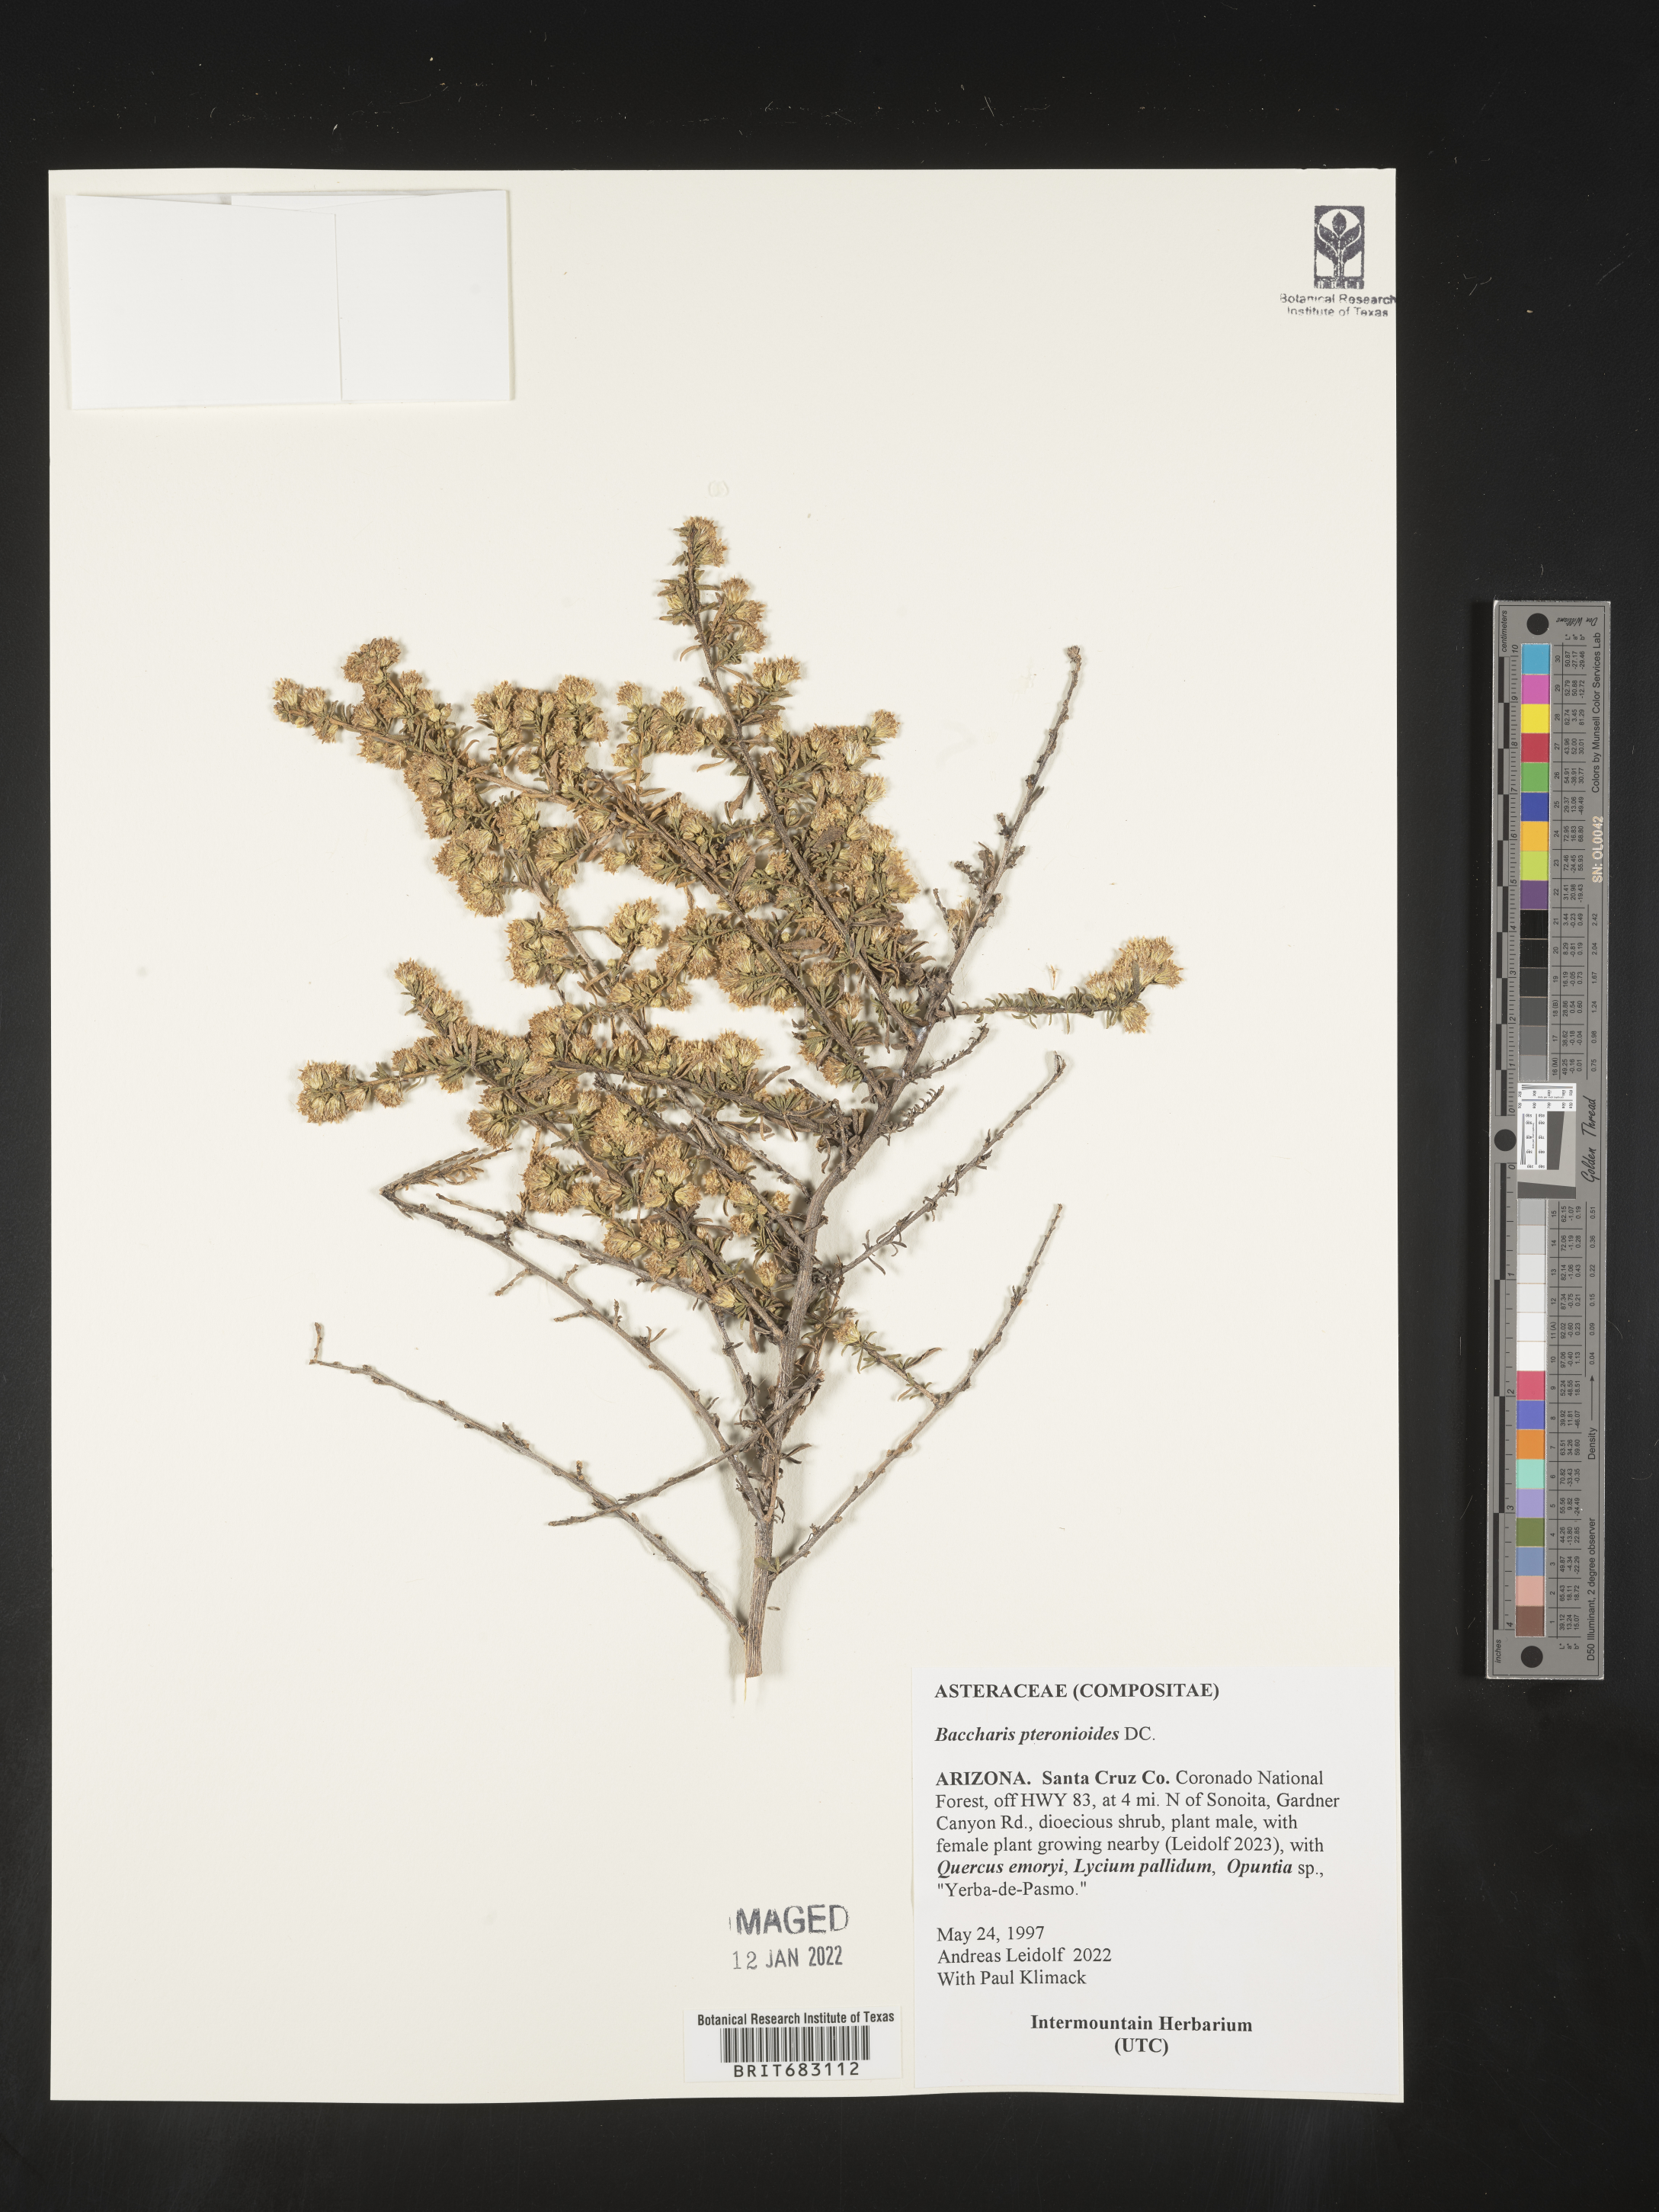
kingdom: Plantae
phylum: Tracheophyta
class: Magnoliopsida
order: Asterales
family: Asteraceae
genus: Baccharis
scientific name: Baccharis pteronioides
